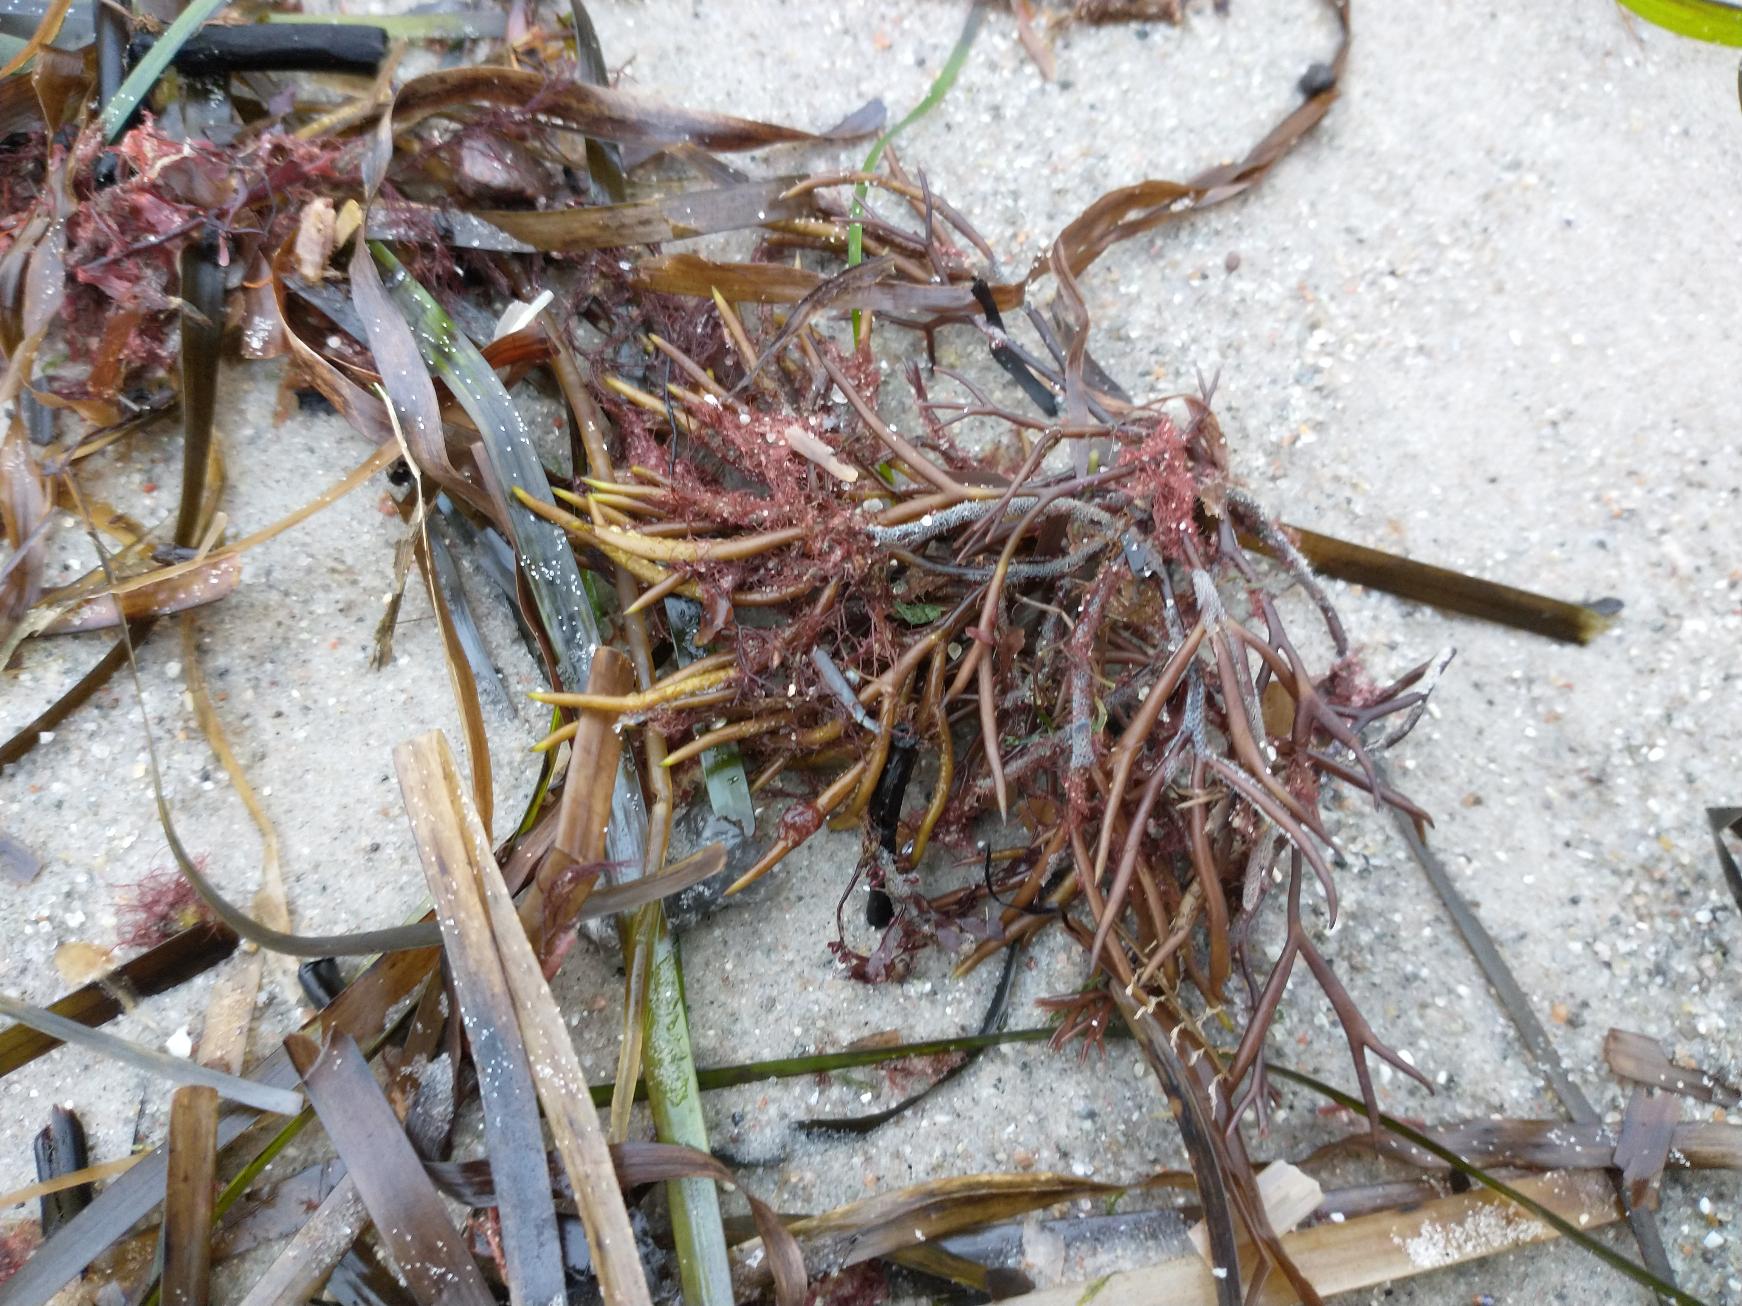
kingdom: Plantae
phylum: Rhodophyta
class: Florideophyceae
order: Gigartinales
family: Furcellariaceae
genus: Furcellaria
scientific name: Furcellaria lumbricalis
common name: Gaffeltang
